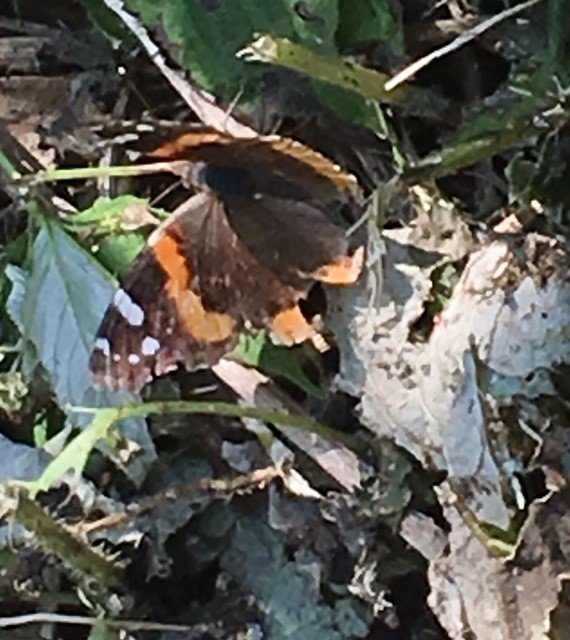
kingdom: Animalia
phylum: Arthropoda
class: Insecta
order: Lepidoptera
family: Nymphalidae
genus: Vanessa
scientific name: Vanessa atalanta
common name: Red Admiral
